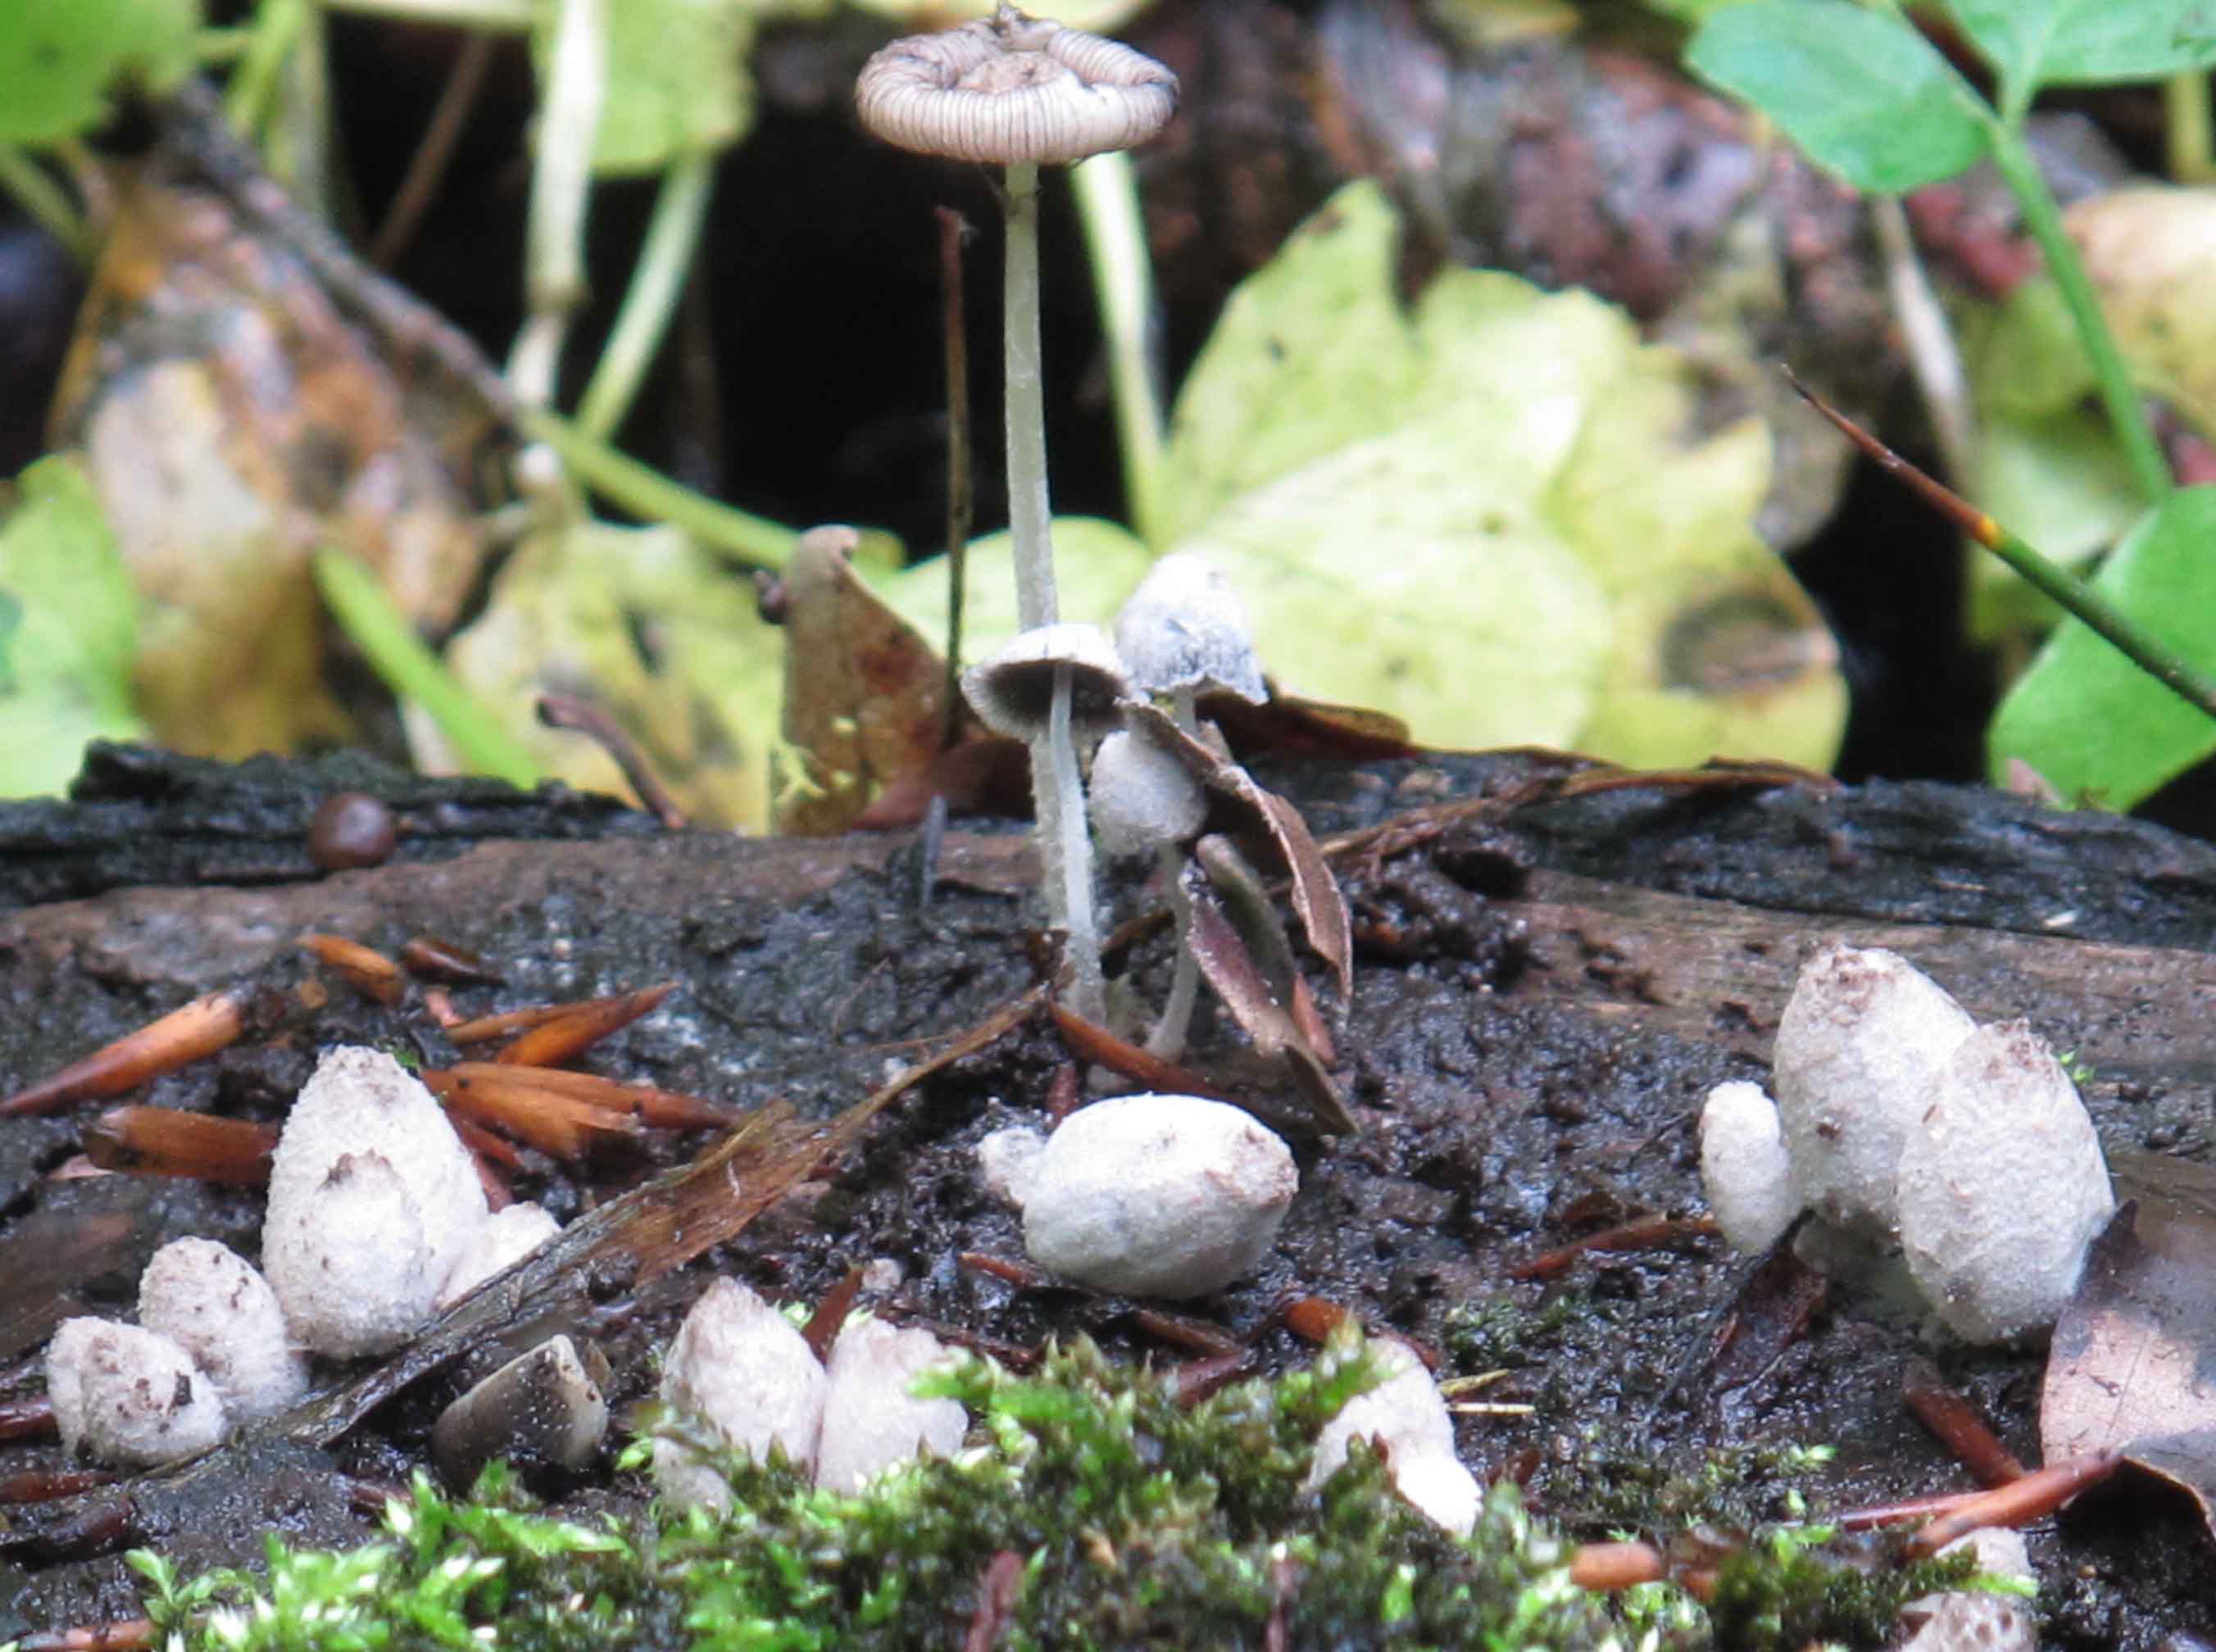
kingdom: Fungi
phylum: Basidiomycota
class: Agaricomycetes
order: Agaricales
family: Psathyrellaceae
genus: Coprinopsis
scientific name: Coprinopsis laanii
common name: stub-blækhat
